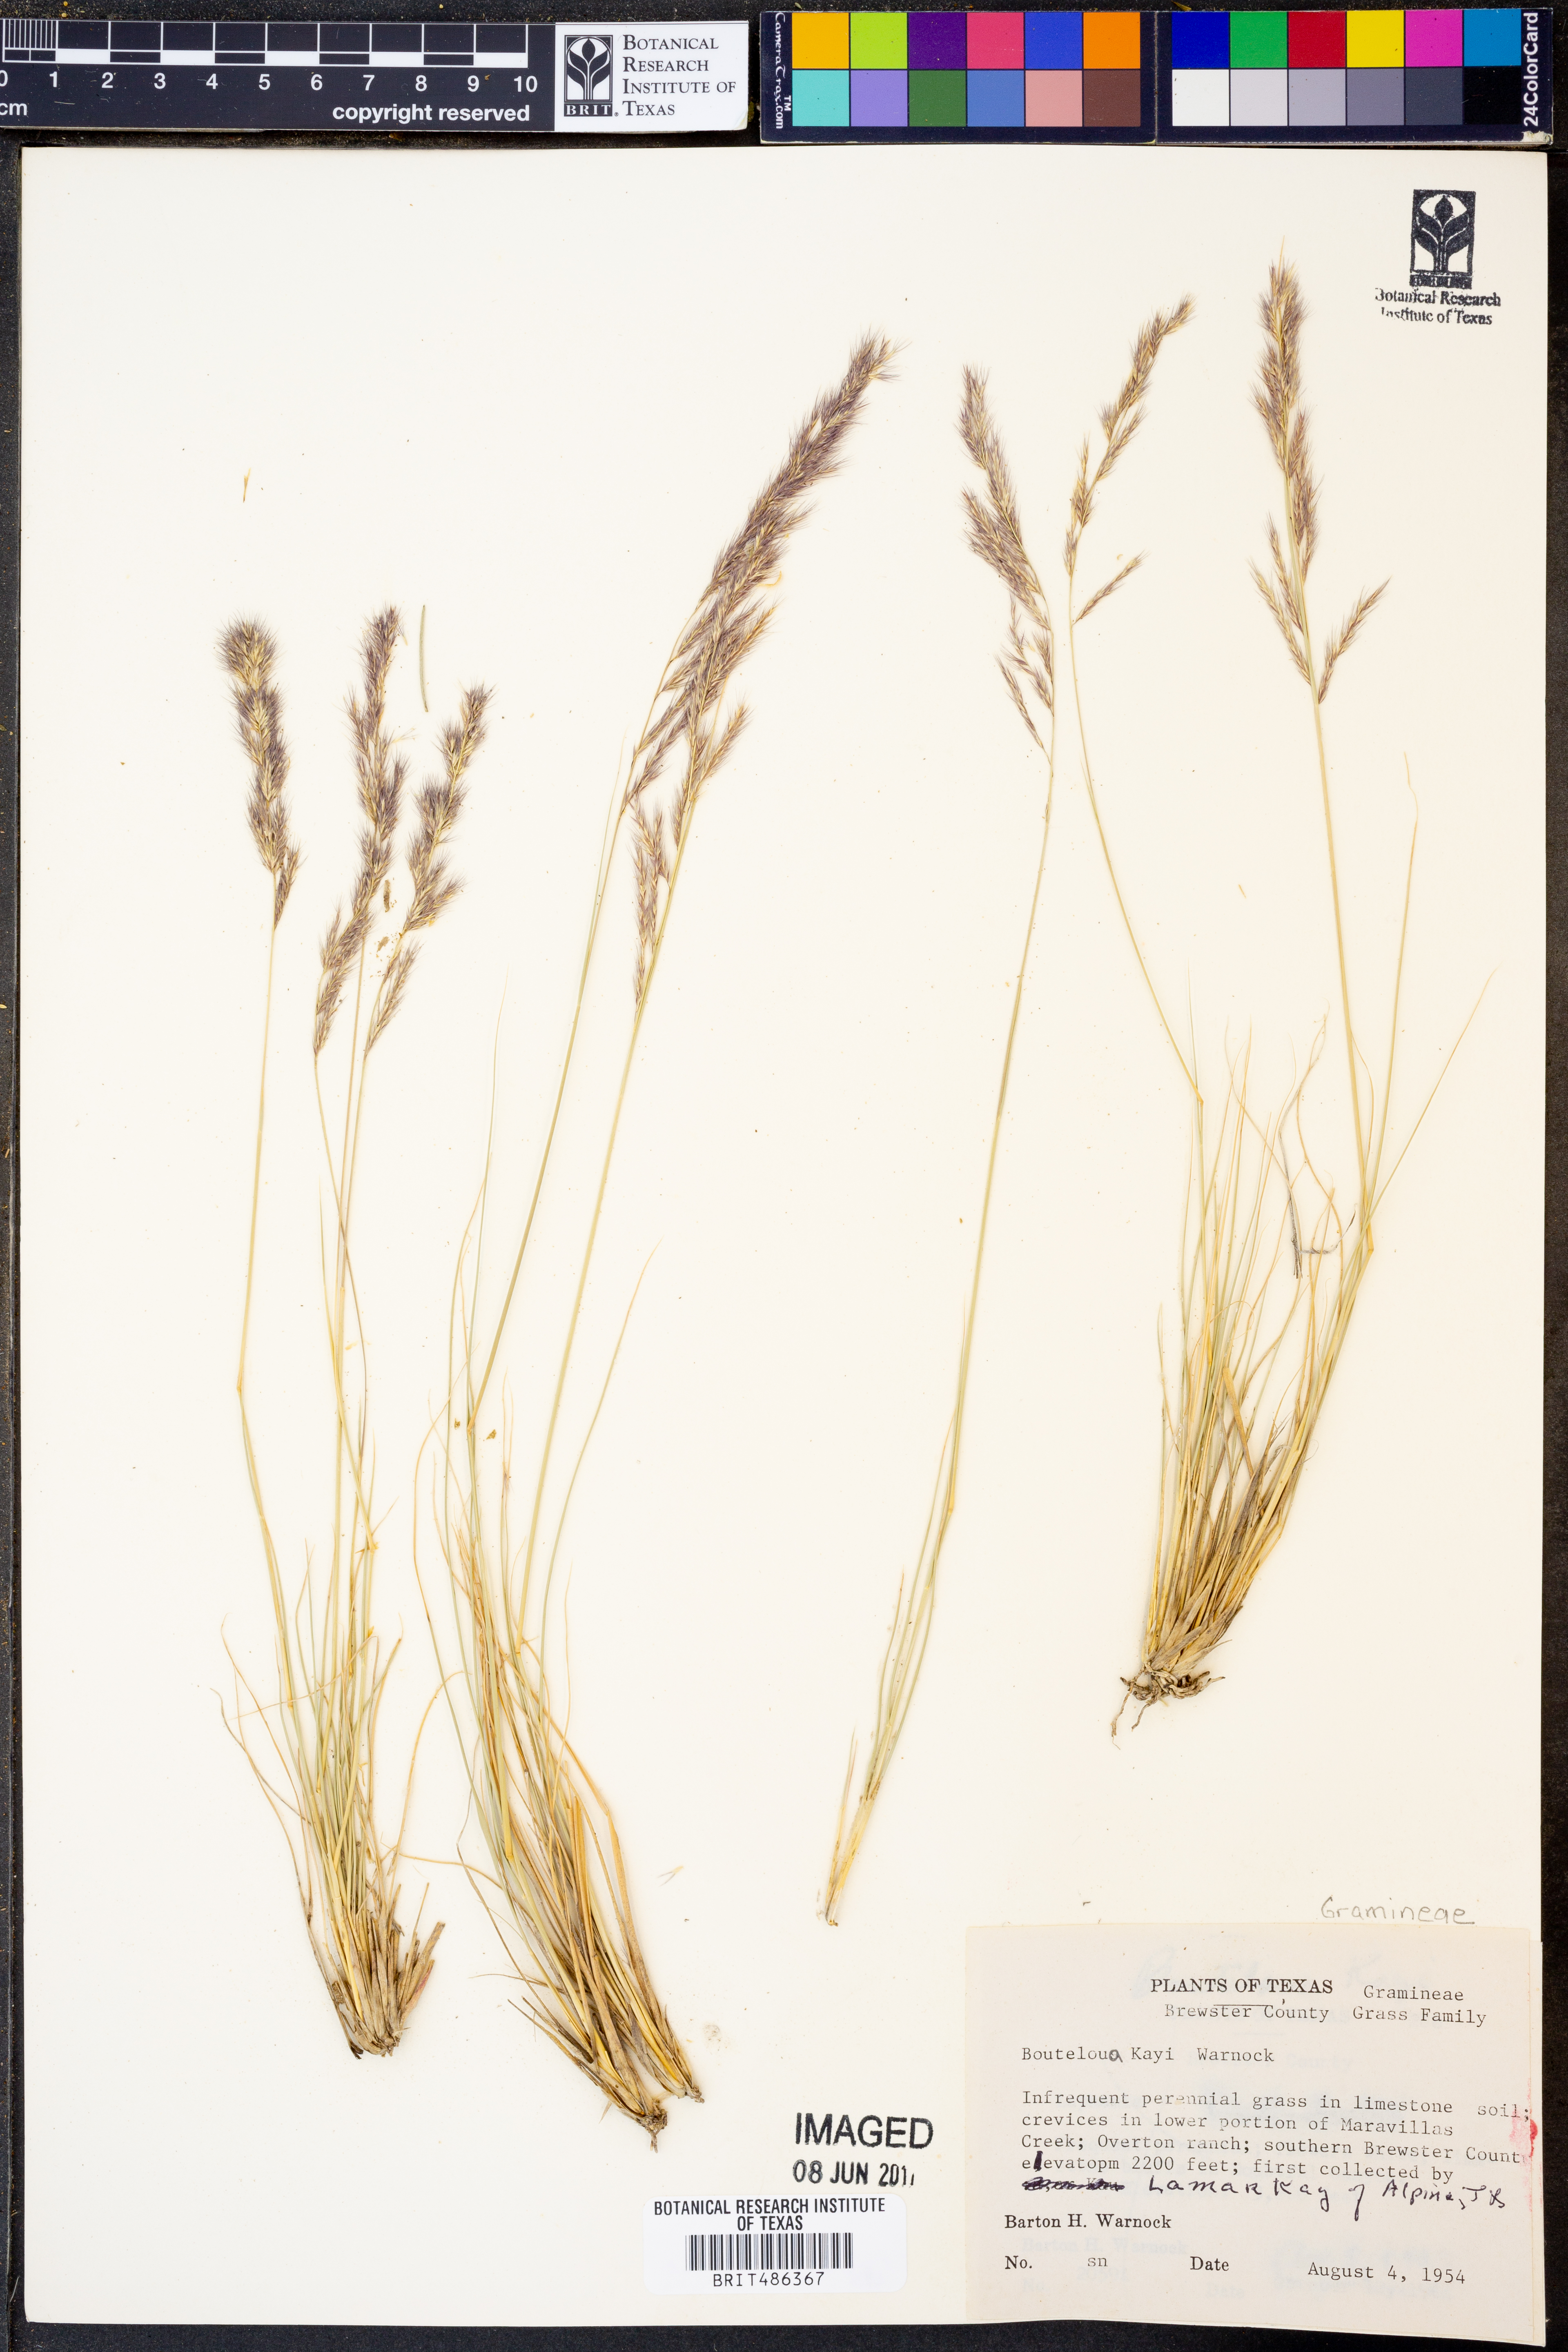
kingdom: Plantae
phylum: Tracheophyta
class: Liliopsida
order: Poales
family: Poaceae
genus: Bouteloua
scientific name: Bouteloua kayi
